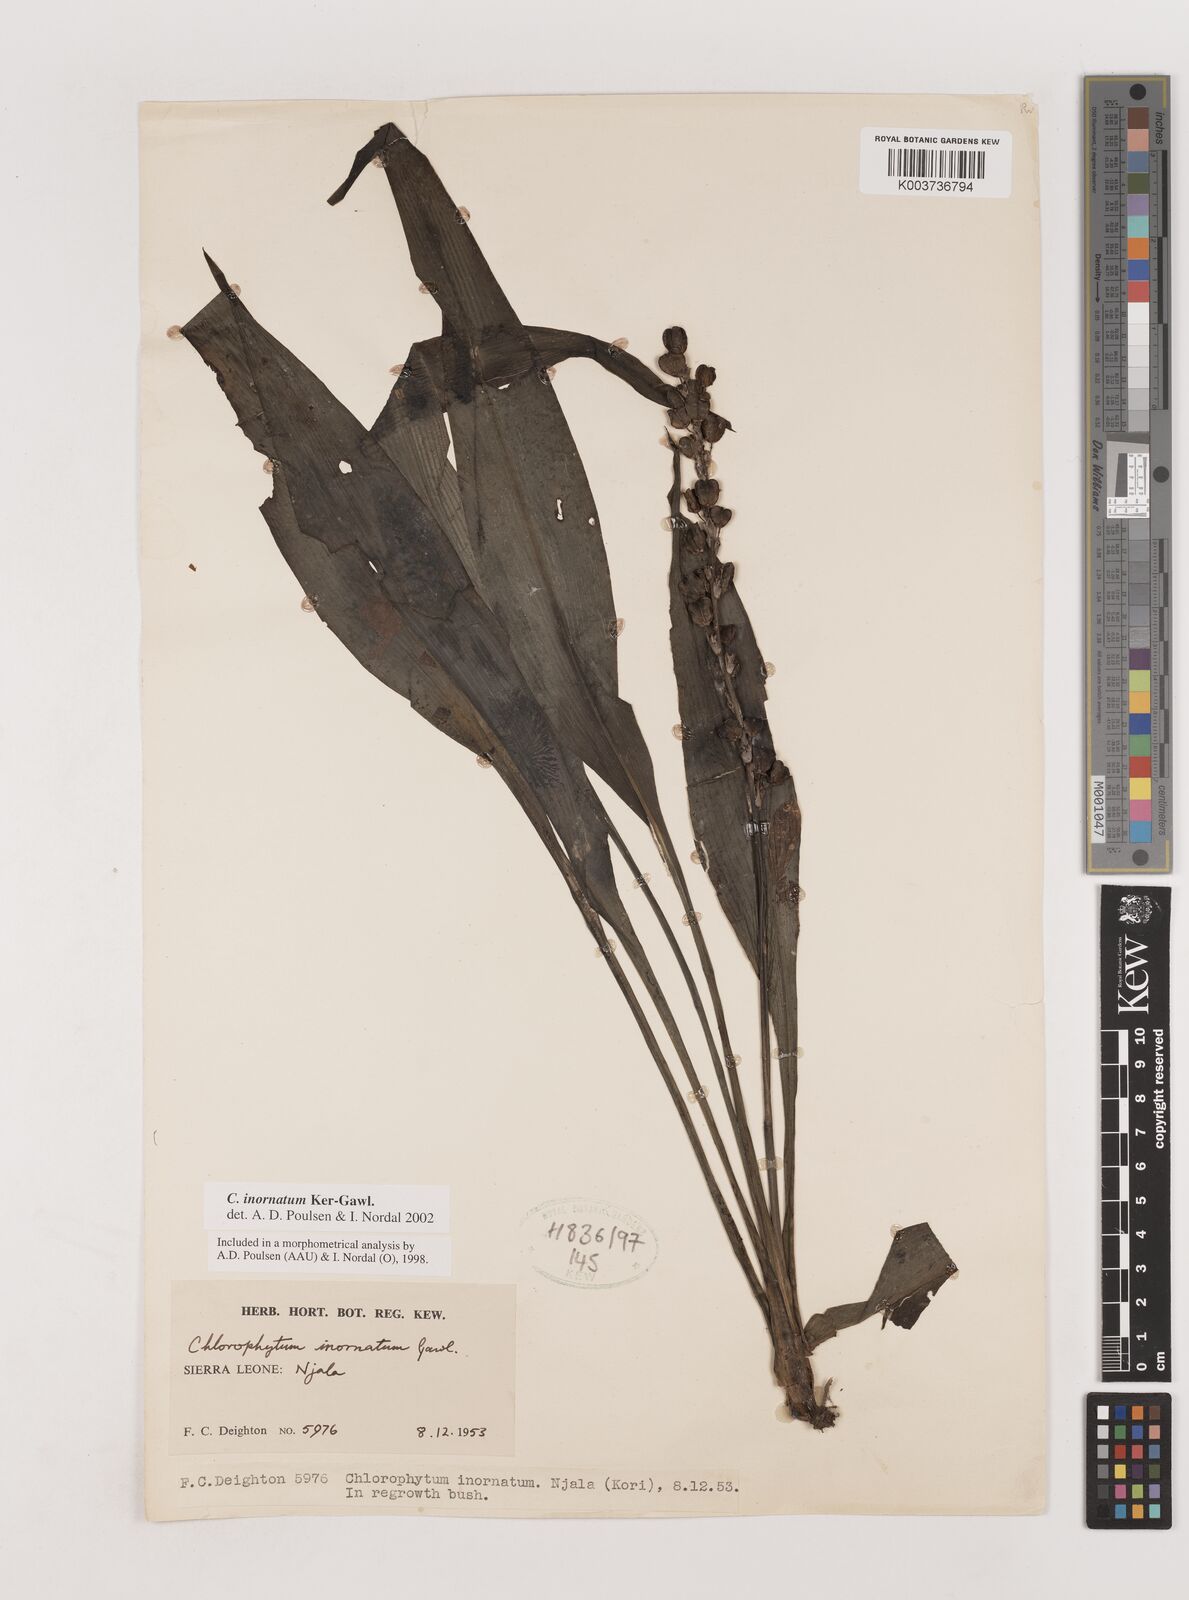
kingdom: Plantae
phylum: Tracheophyta
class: Liliopsida
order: Asparagales
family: Asparagaceae
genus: Chlorophytum
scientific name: Chlorophytum inornatum
